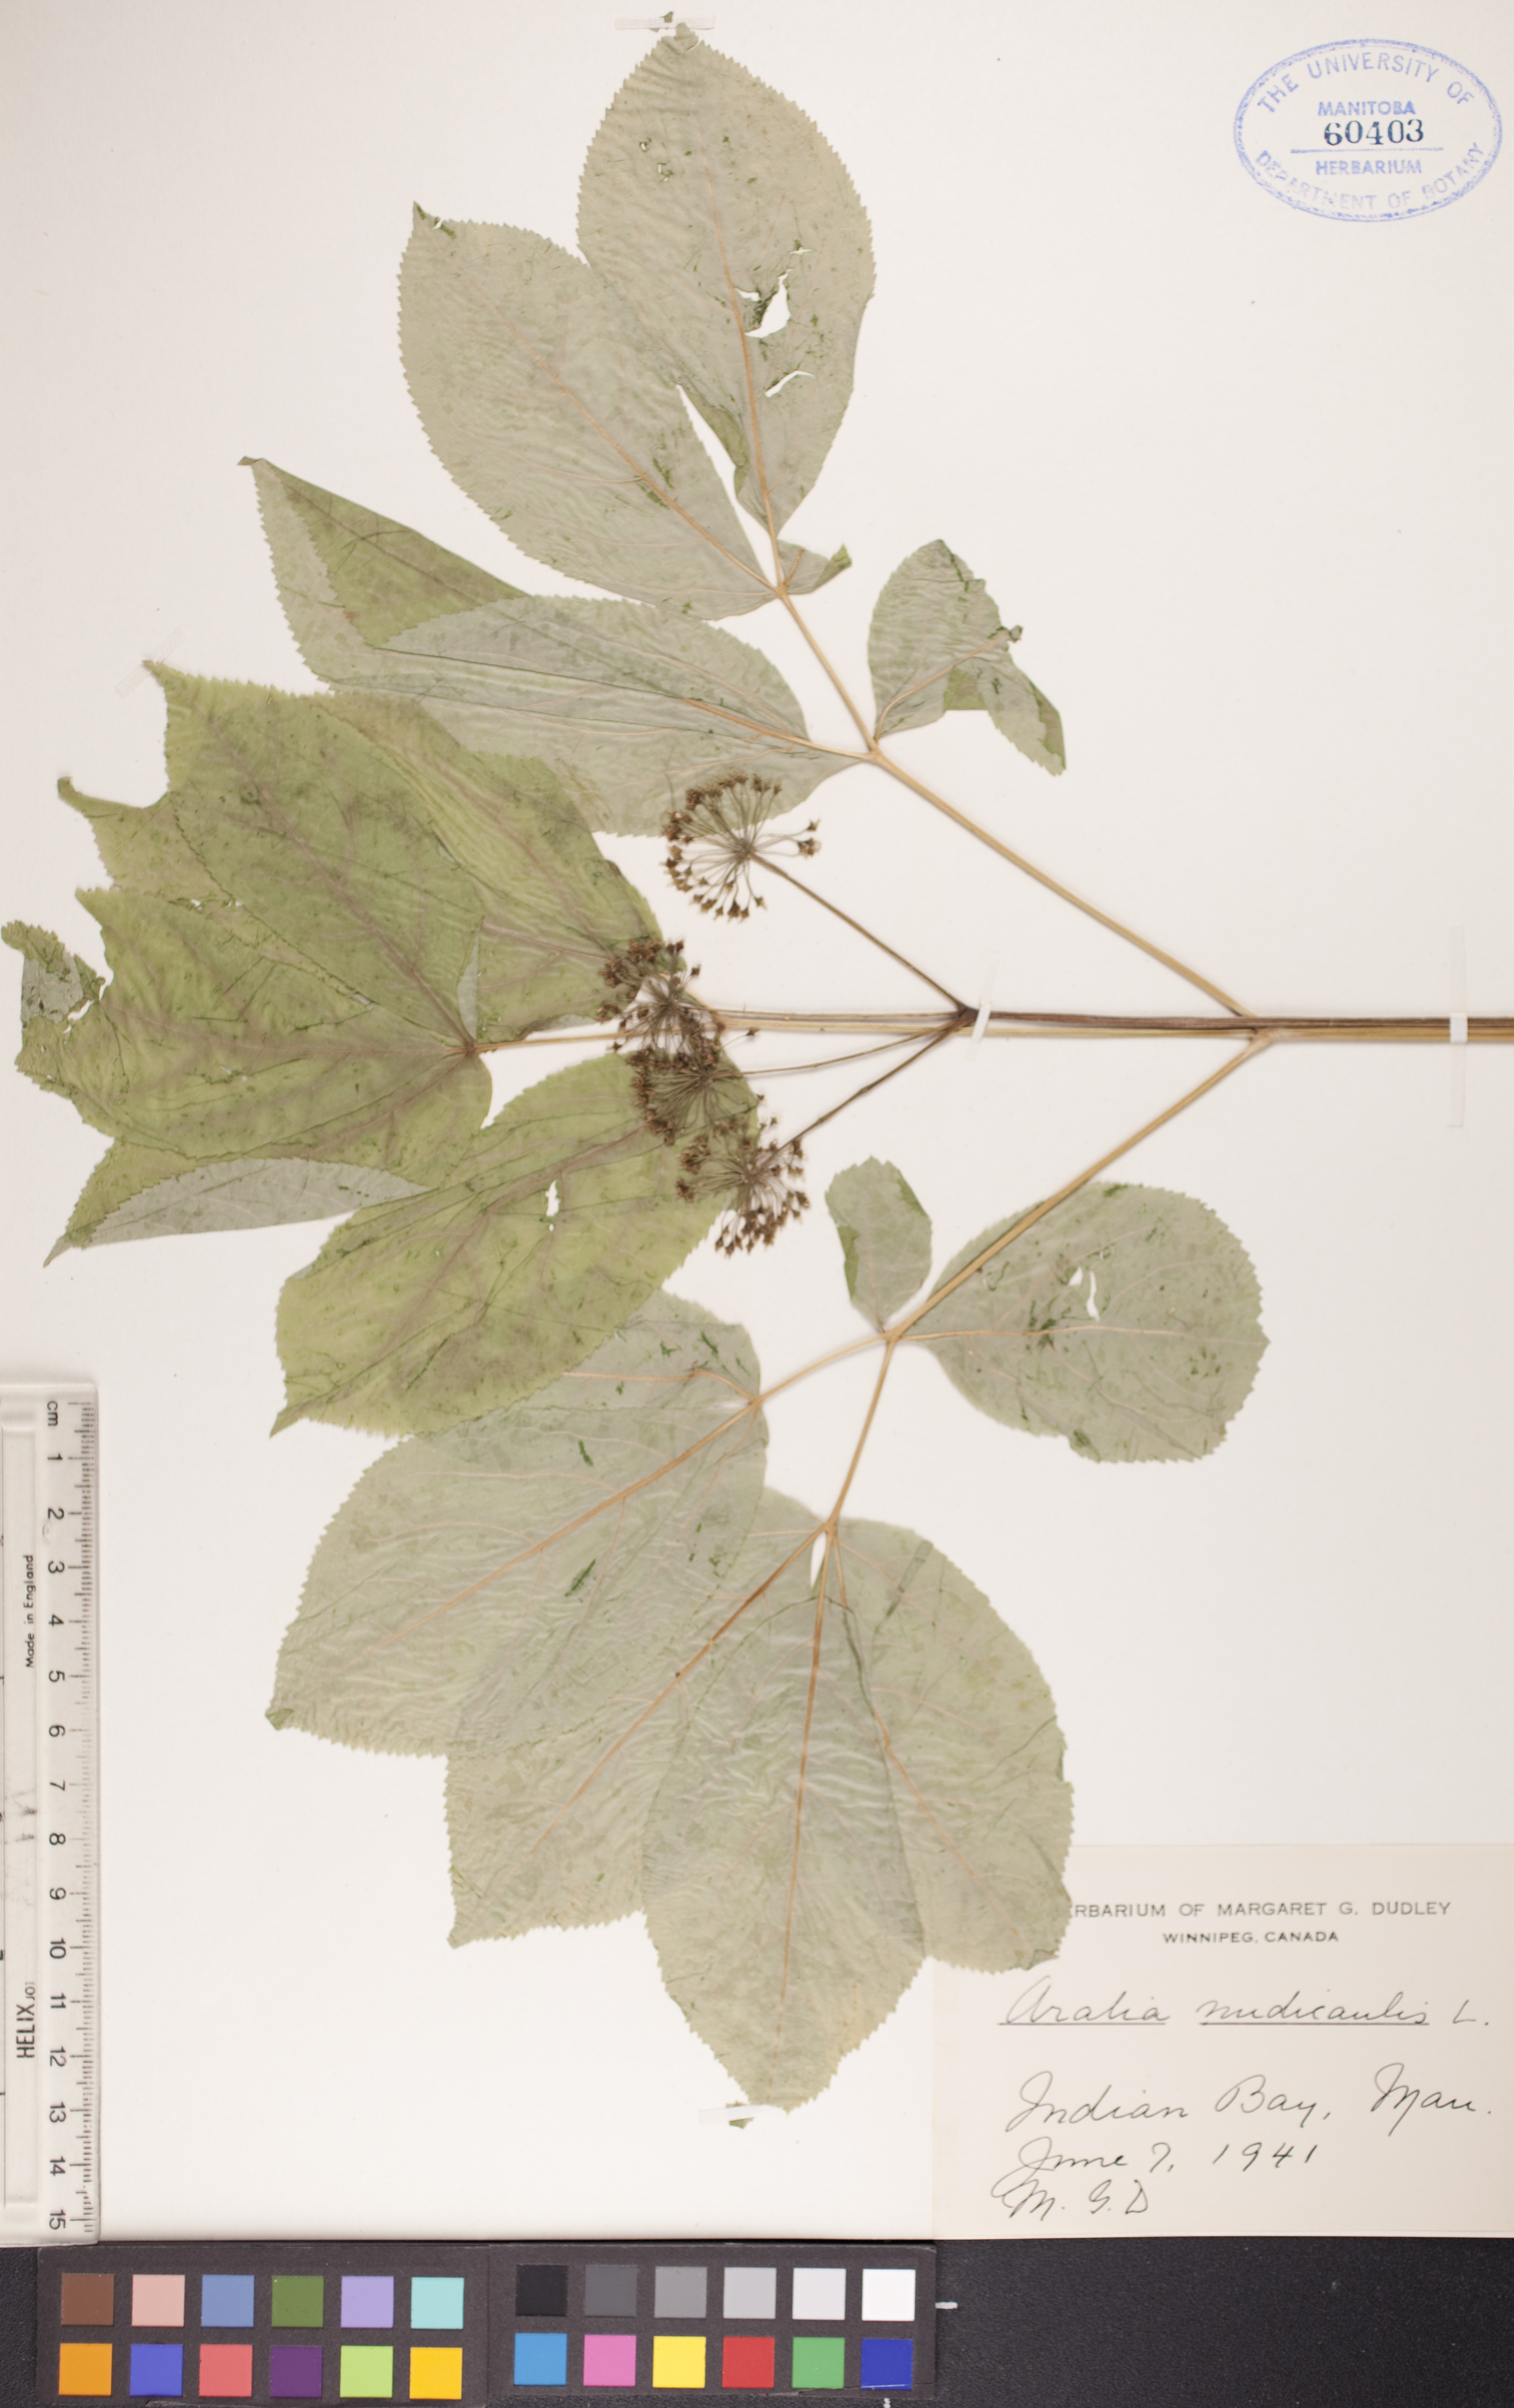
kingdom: Plantae
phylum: Tracheophyta
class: Magnoliopsida
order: Apiales
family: Araliaceae
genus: Aralia
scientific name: Aralia nudicaulis
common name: Wild sarsaparilla
